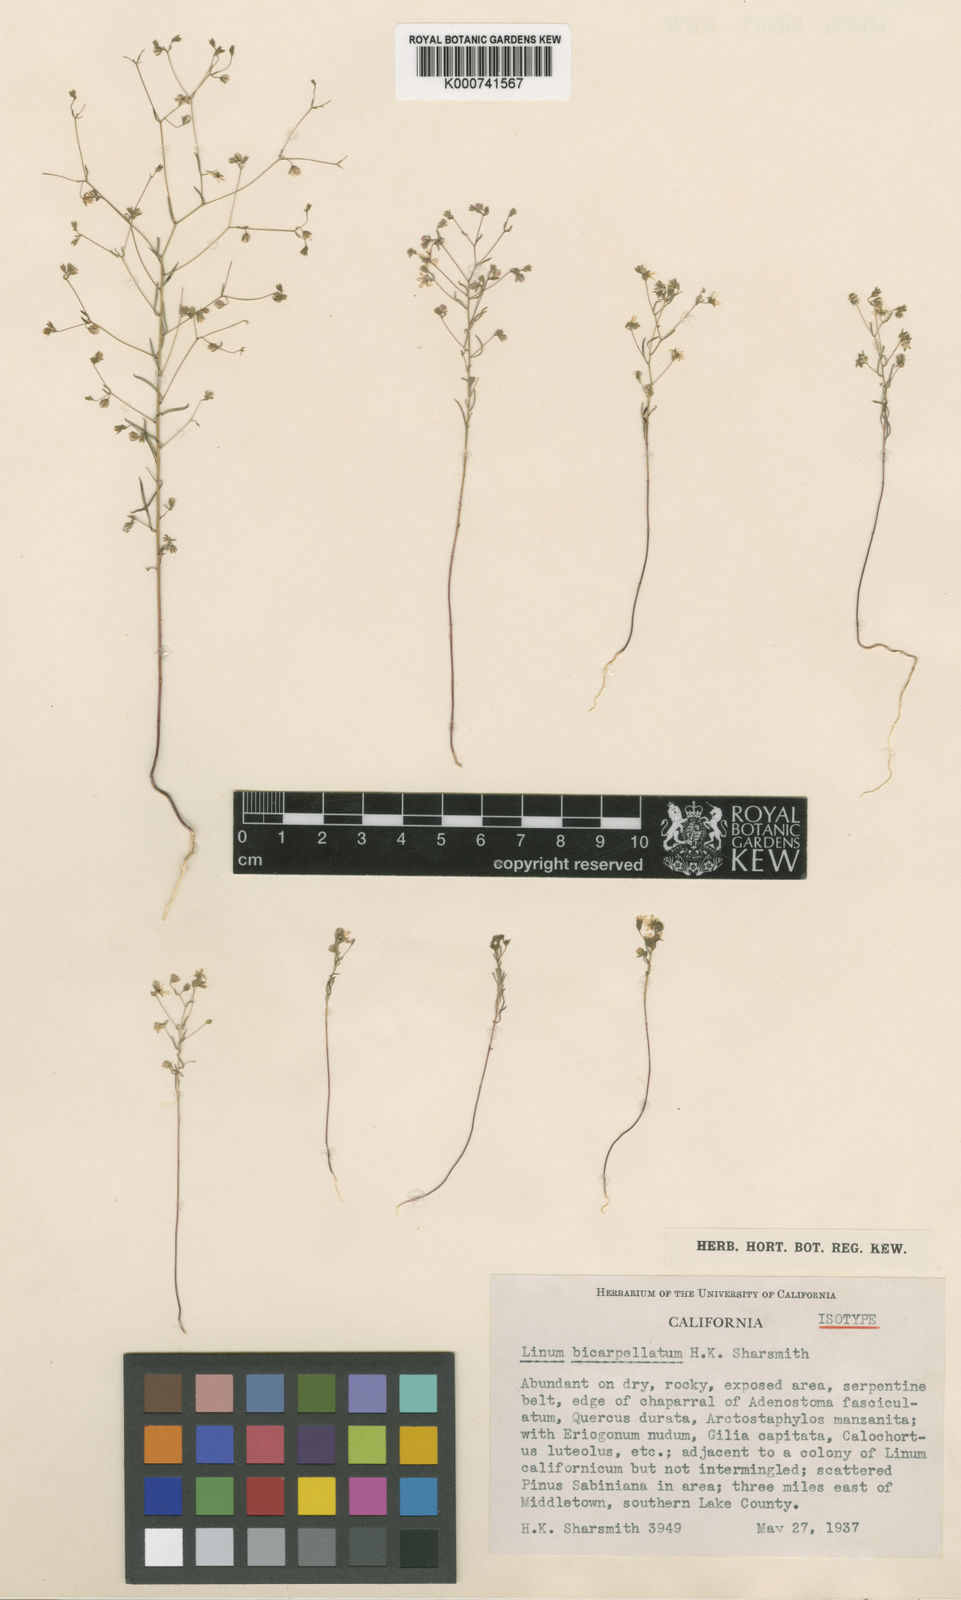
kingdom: Plantae
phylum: Tracheophyta
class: Magnoliopsida
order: Malpighiales
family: Linaceae
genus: Hesperolinon
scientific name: Hesperolinon bicarpellatum
